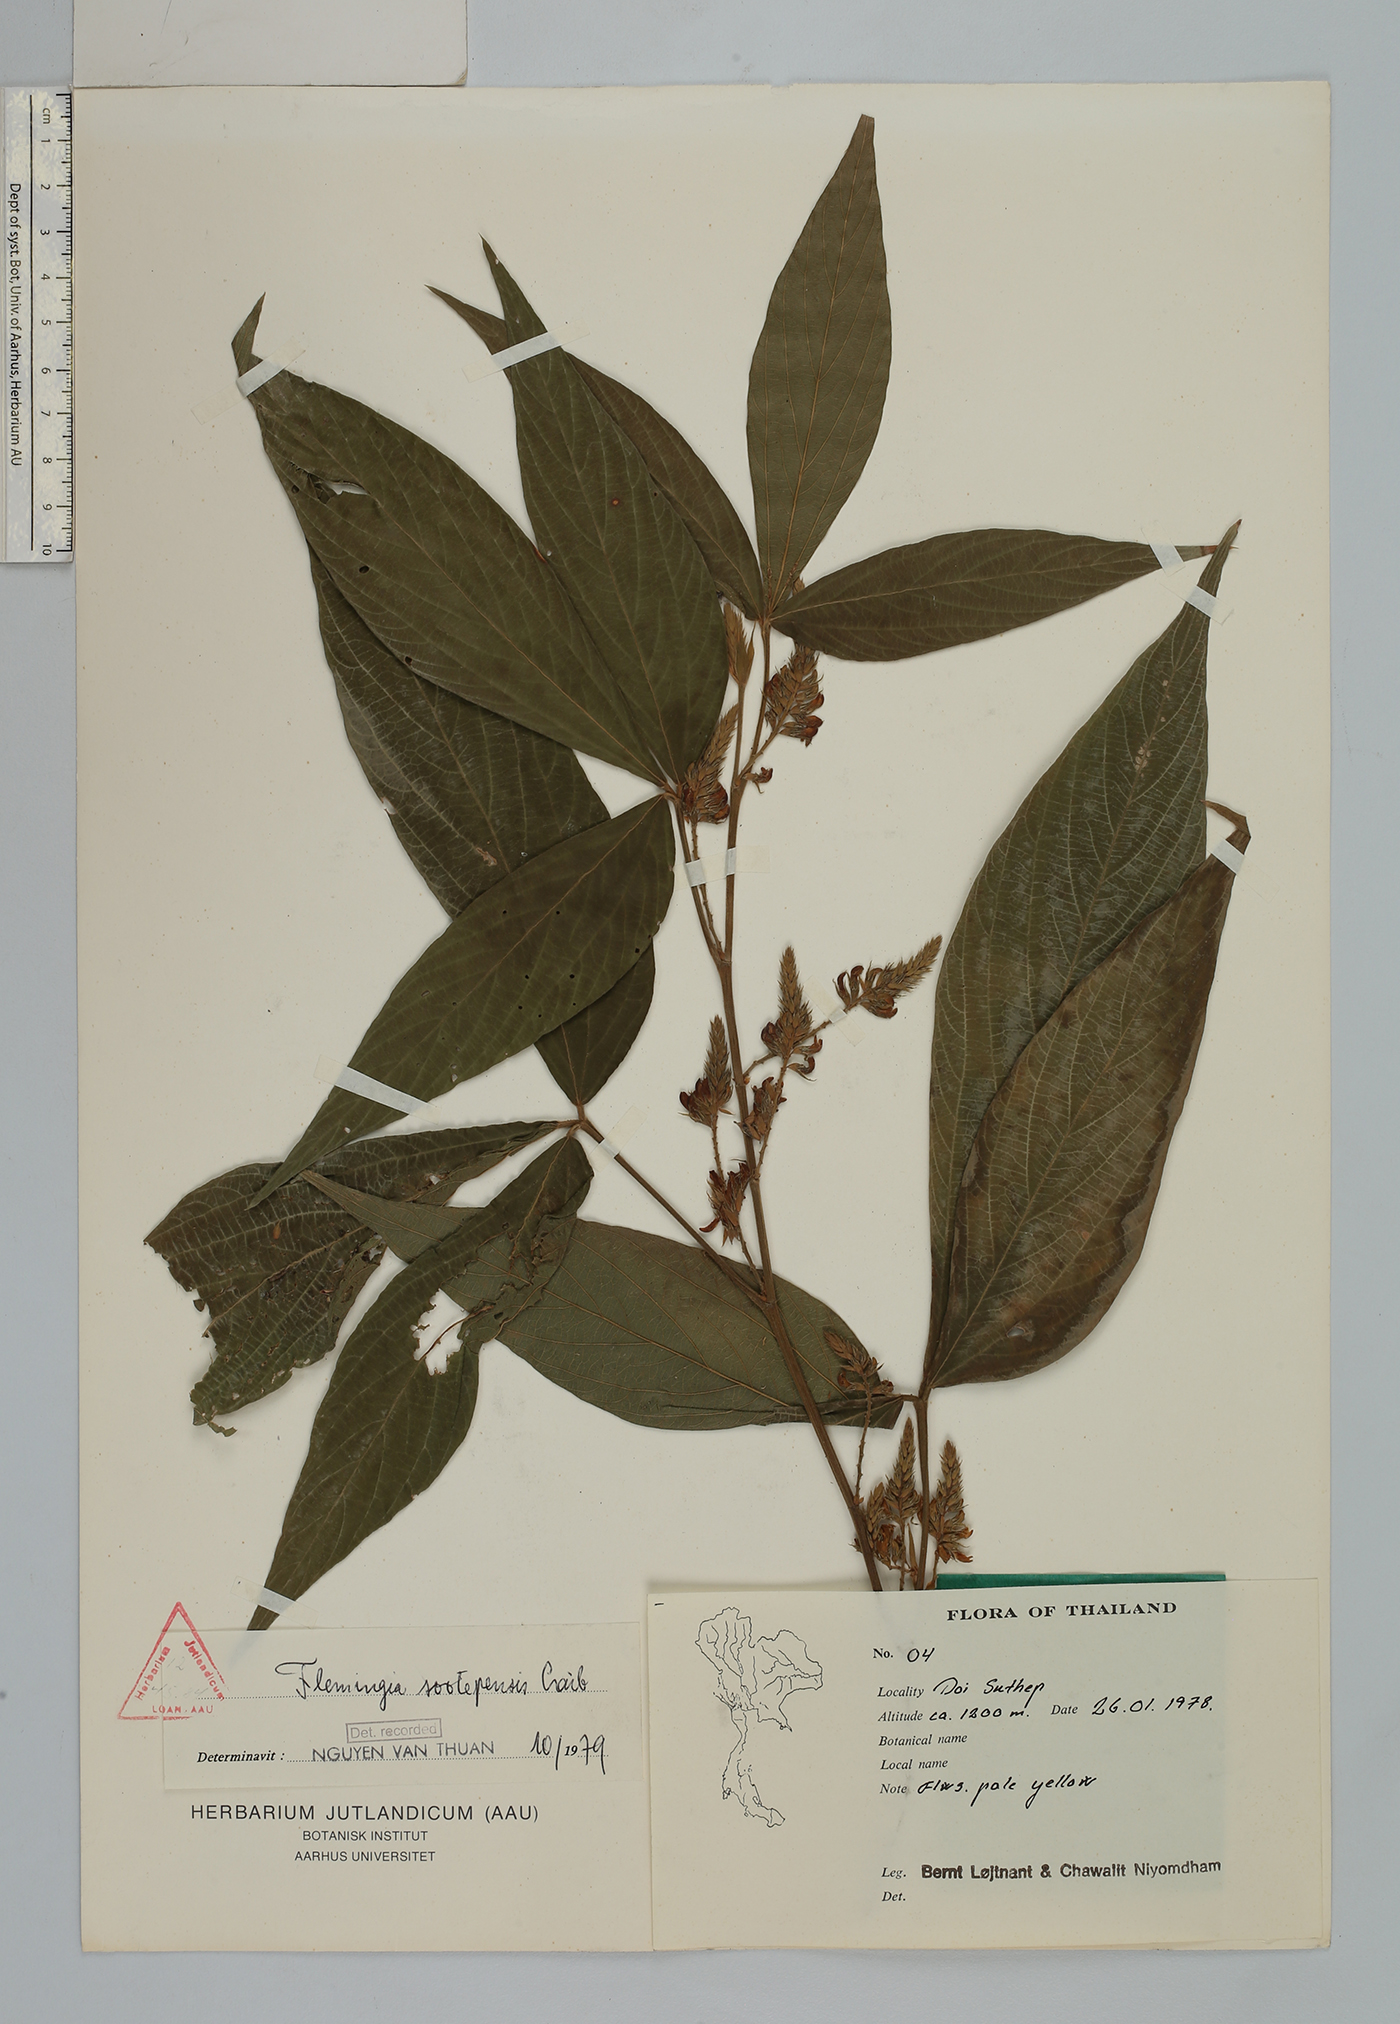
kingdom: Plantae
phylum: Tracheophyta
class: Magnoliopsida
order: Fabales
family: Fabaceae
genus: Flemingia
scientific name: Flemingia sootepensis
